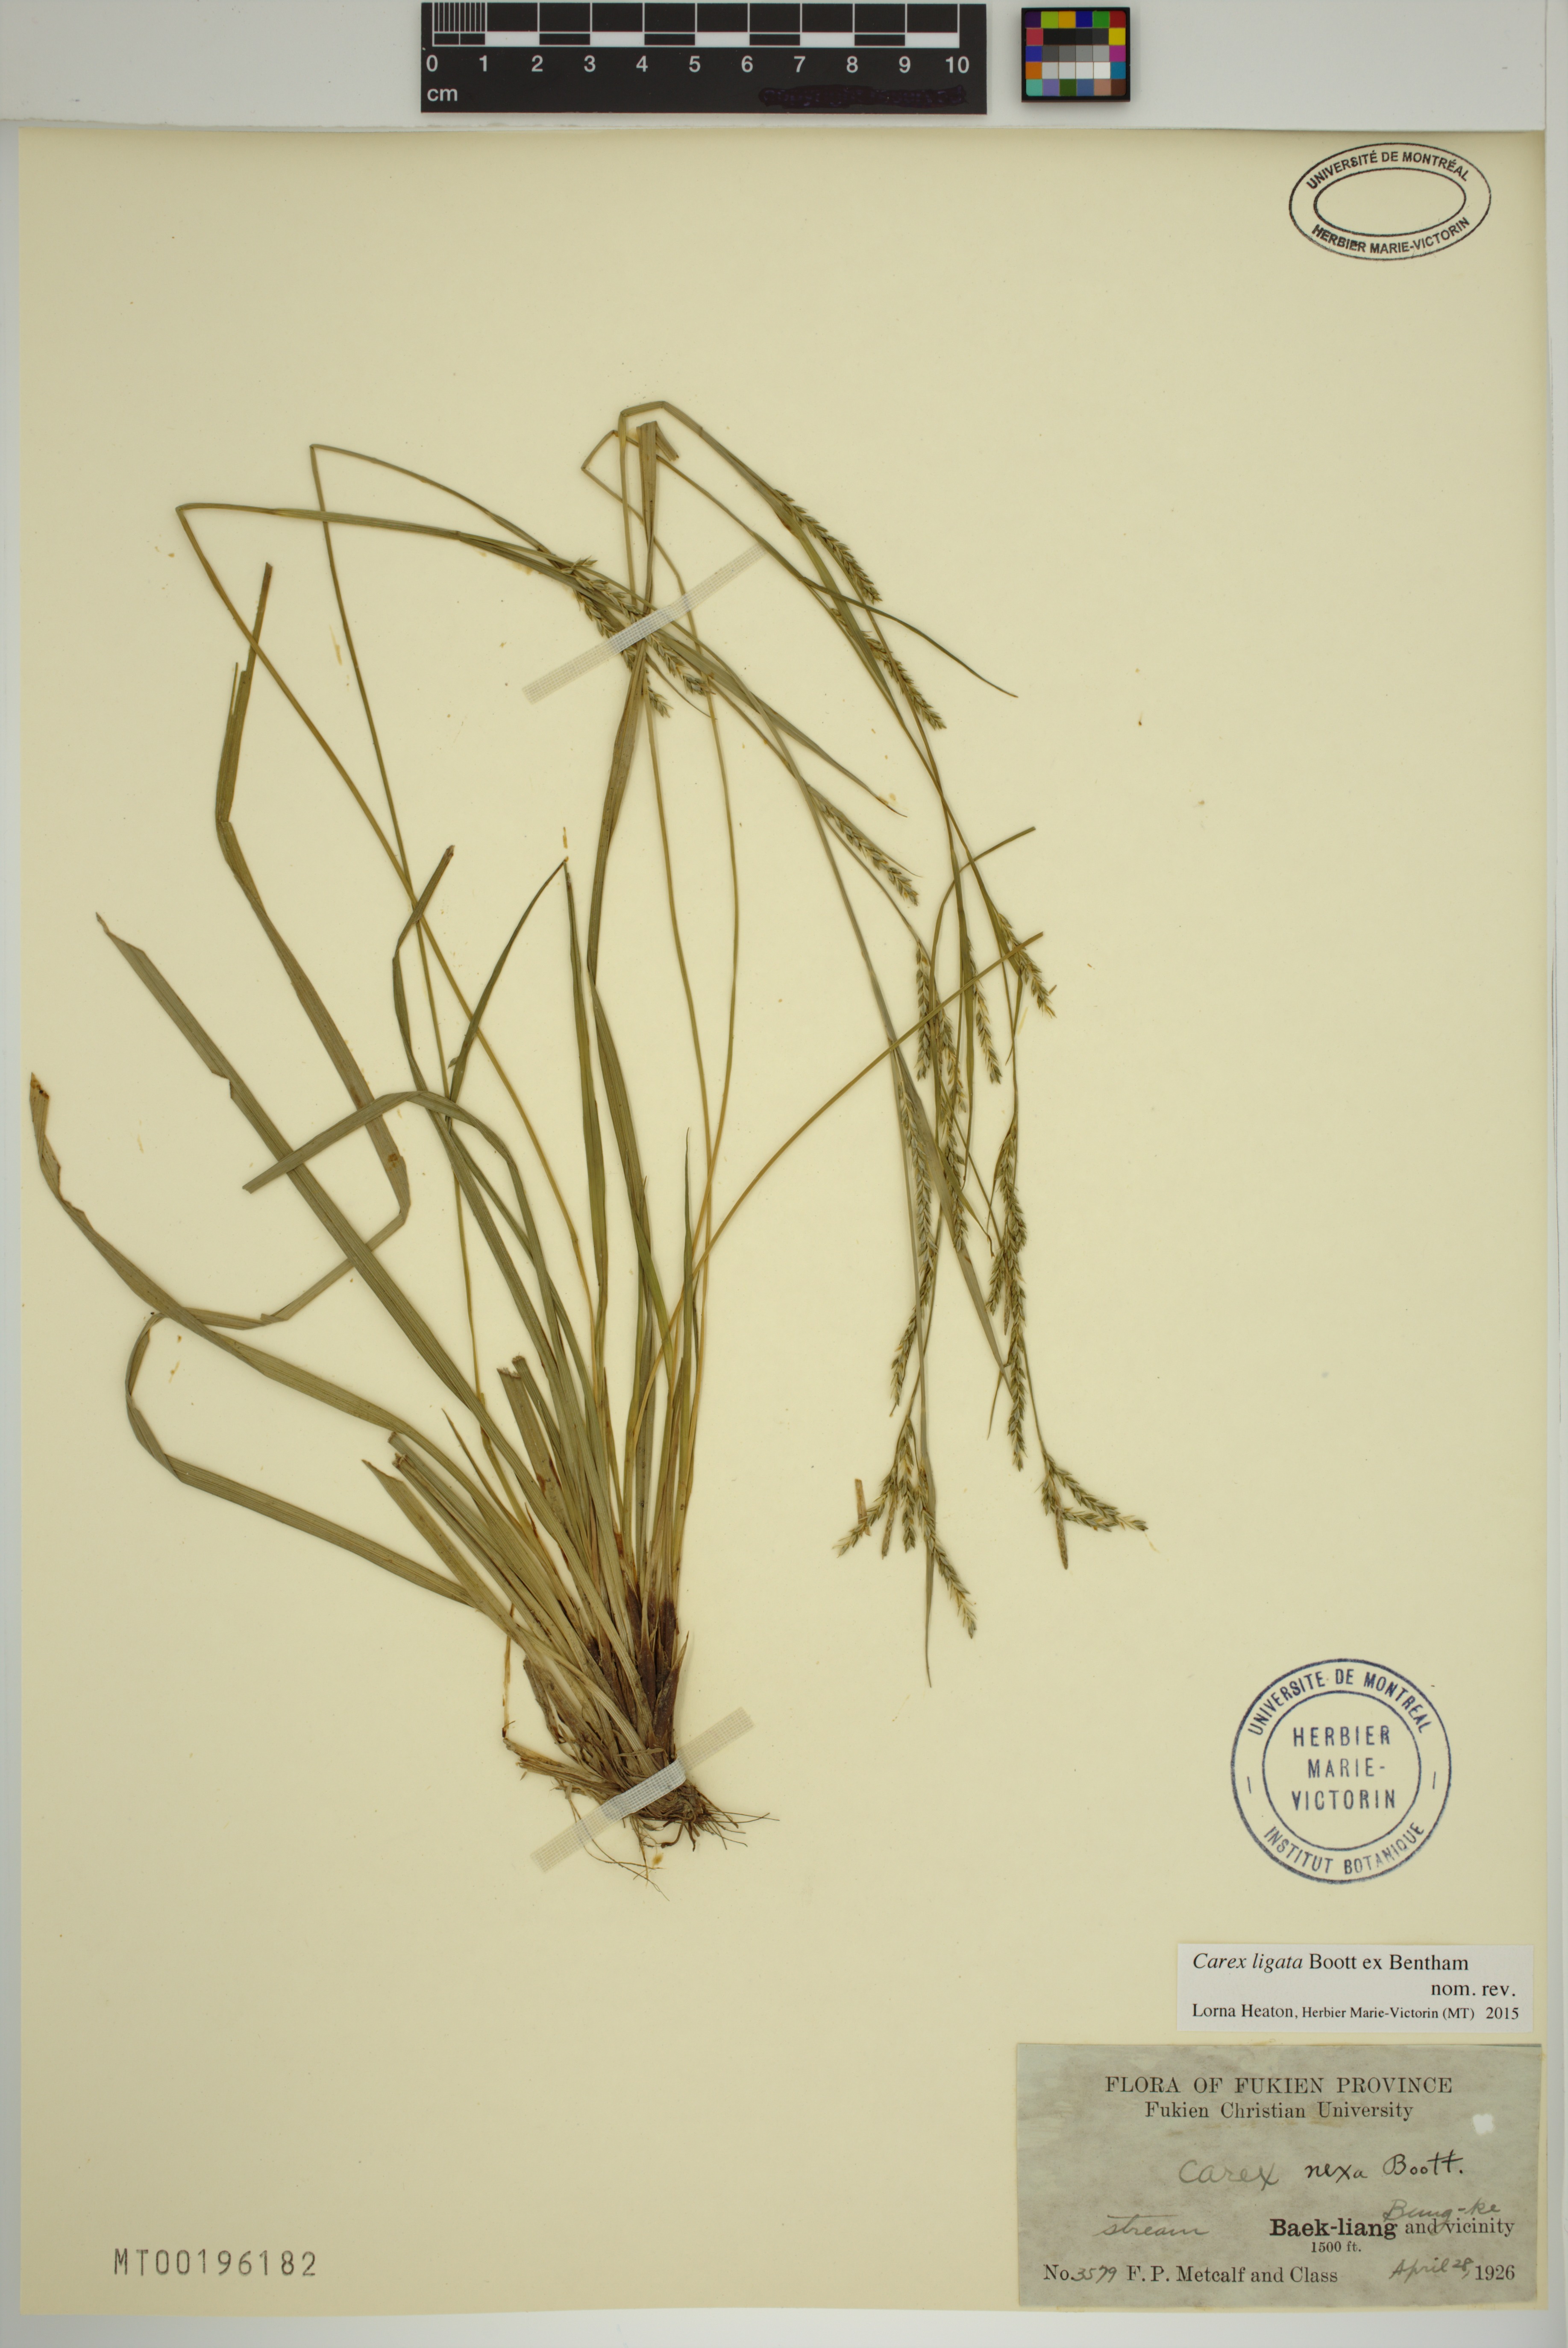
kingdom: Plantae
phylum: Tracheophyta
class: Liliopsida
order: Poales
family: Cyperaceae
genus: Carex
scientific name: Carex ligata
